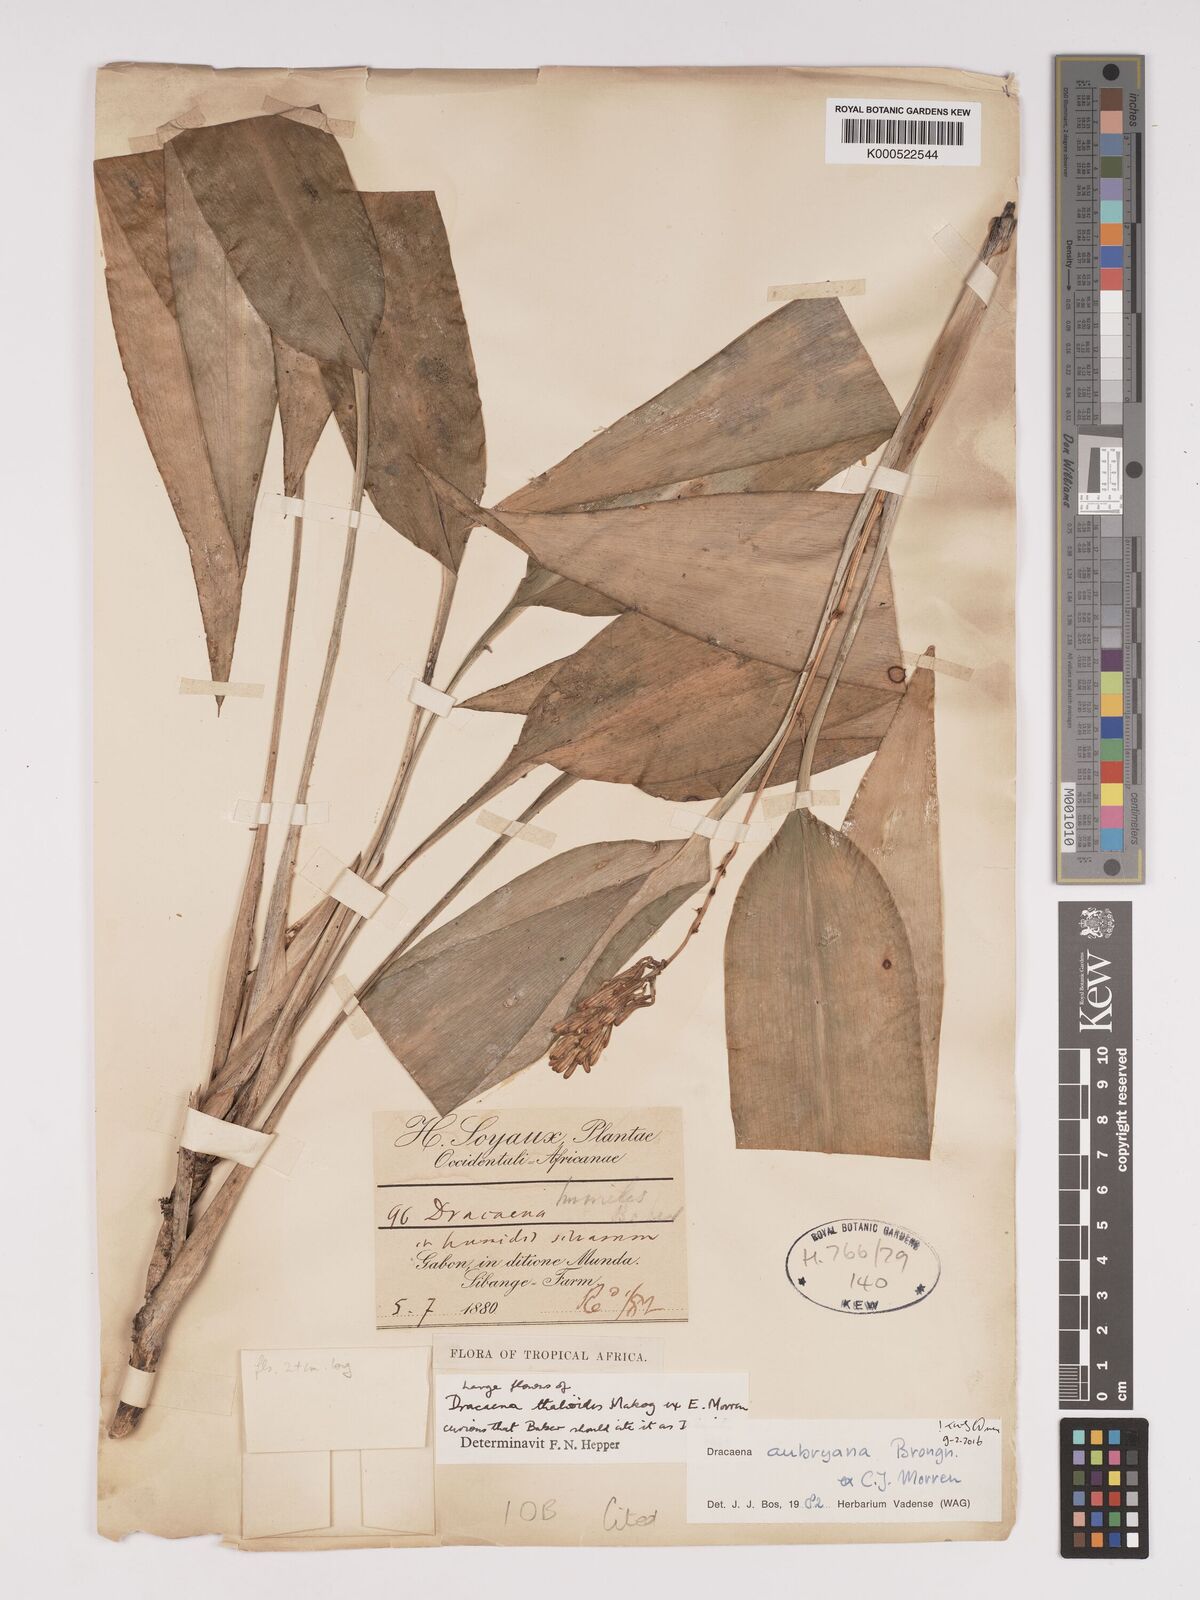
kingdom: Plantae
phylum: Tracheophyta
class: Liliopsida
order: Asparagales
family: Asparagaceae
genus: Dracaena
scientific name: Dracaena aubryana
